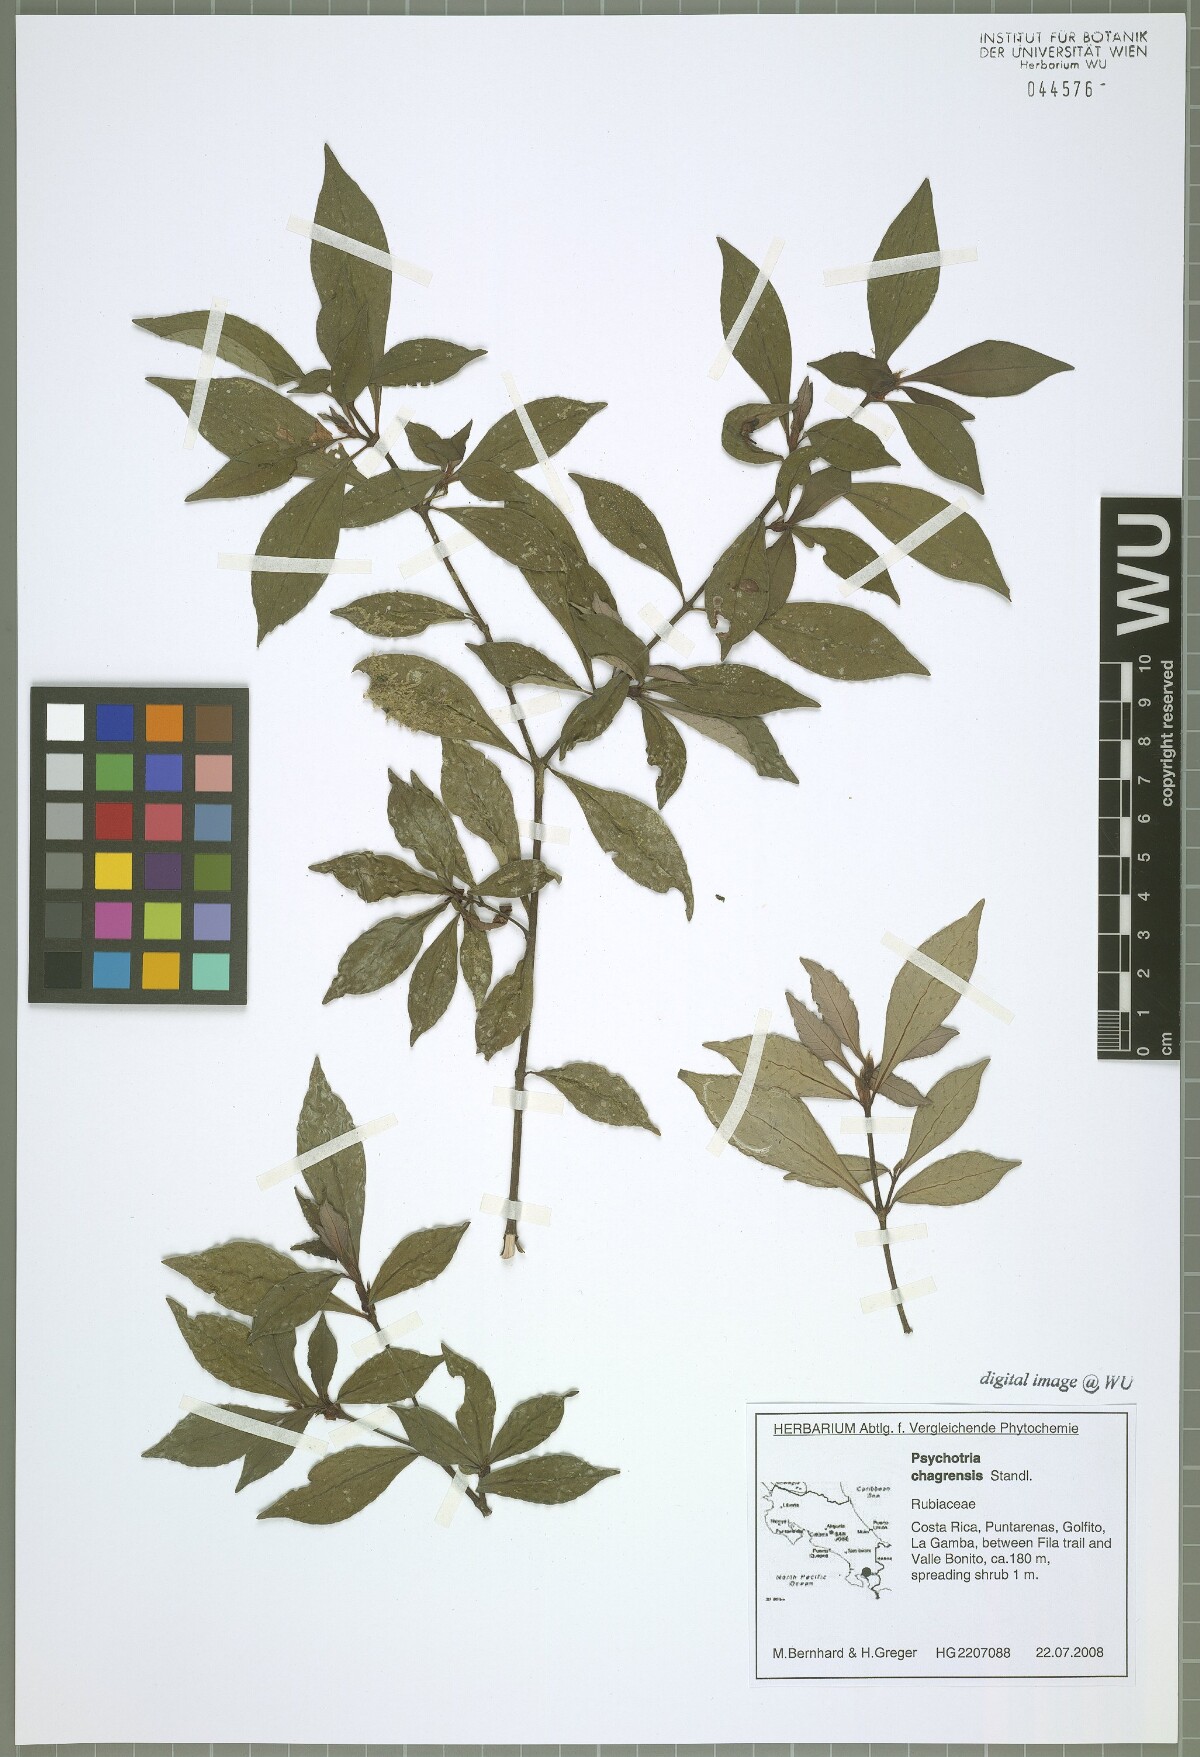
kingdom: Plantae
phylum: Tracheophyta
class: Magnoliopsida
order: Gentianales
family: Rubiaceae
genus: Psychotria
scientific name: Psychotria chagrensis
